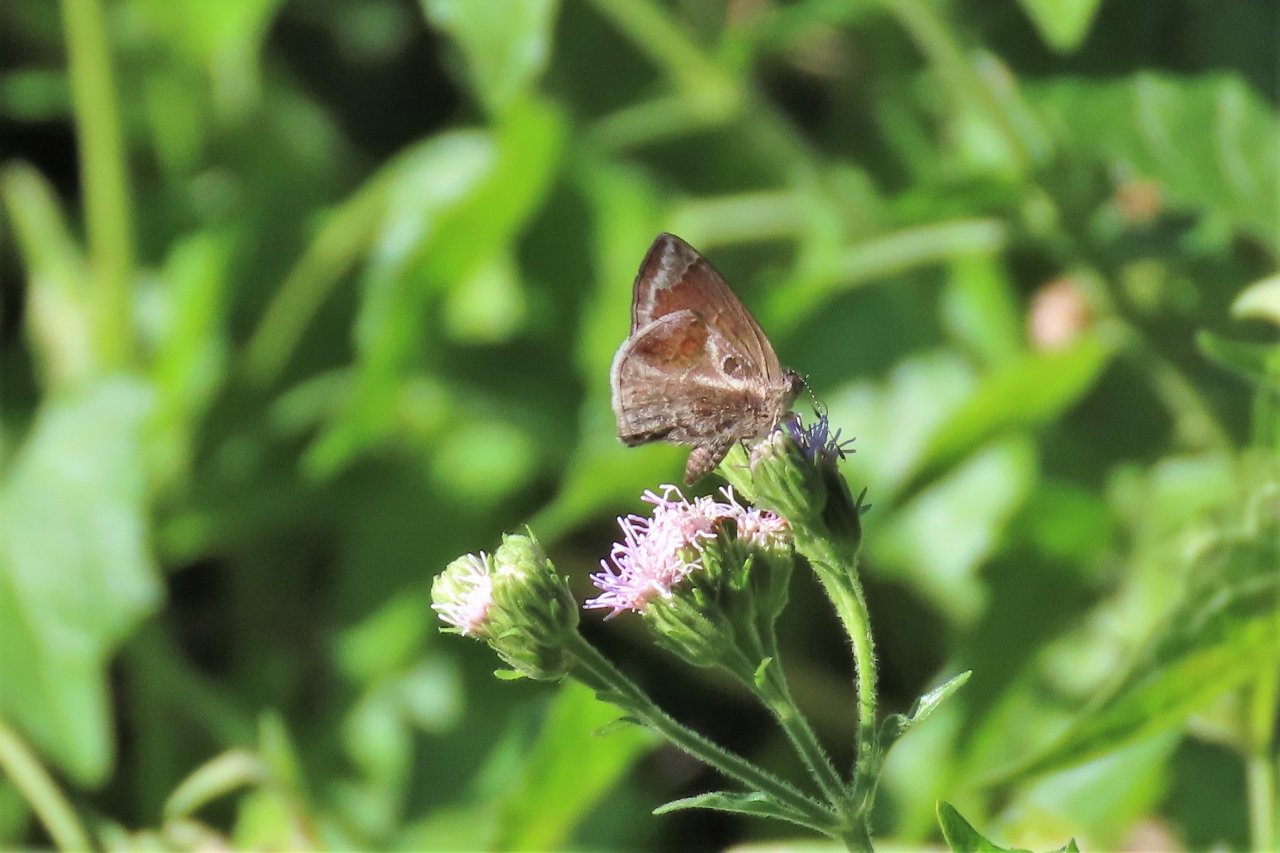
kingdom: Animalia
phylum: Arthropoda
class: Insecta
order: Lepidoptera
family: Lycaenidae
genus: Strymon
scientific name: Strymon bazochii
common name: Lantana Scrub-Hairstreak
